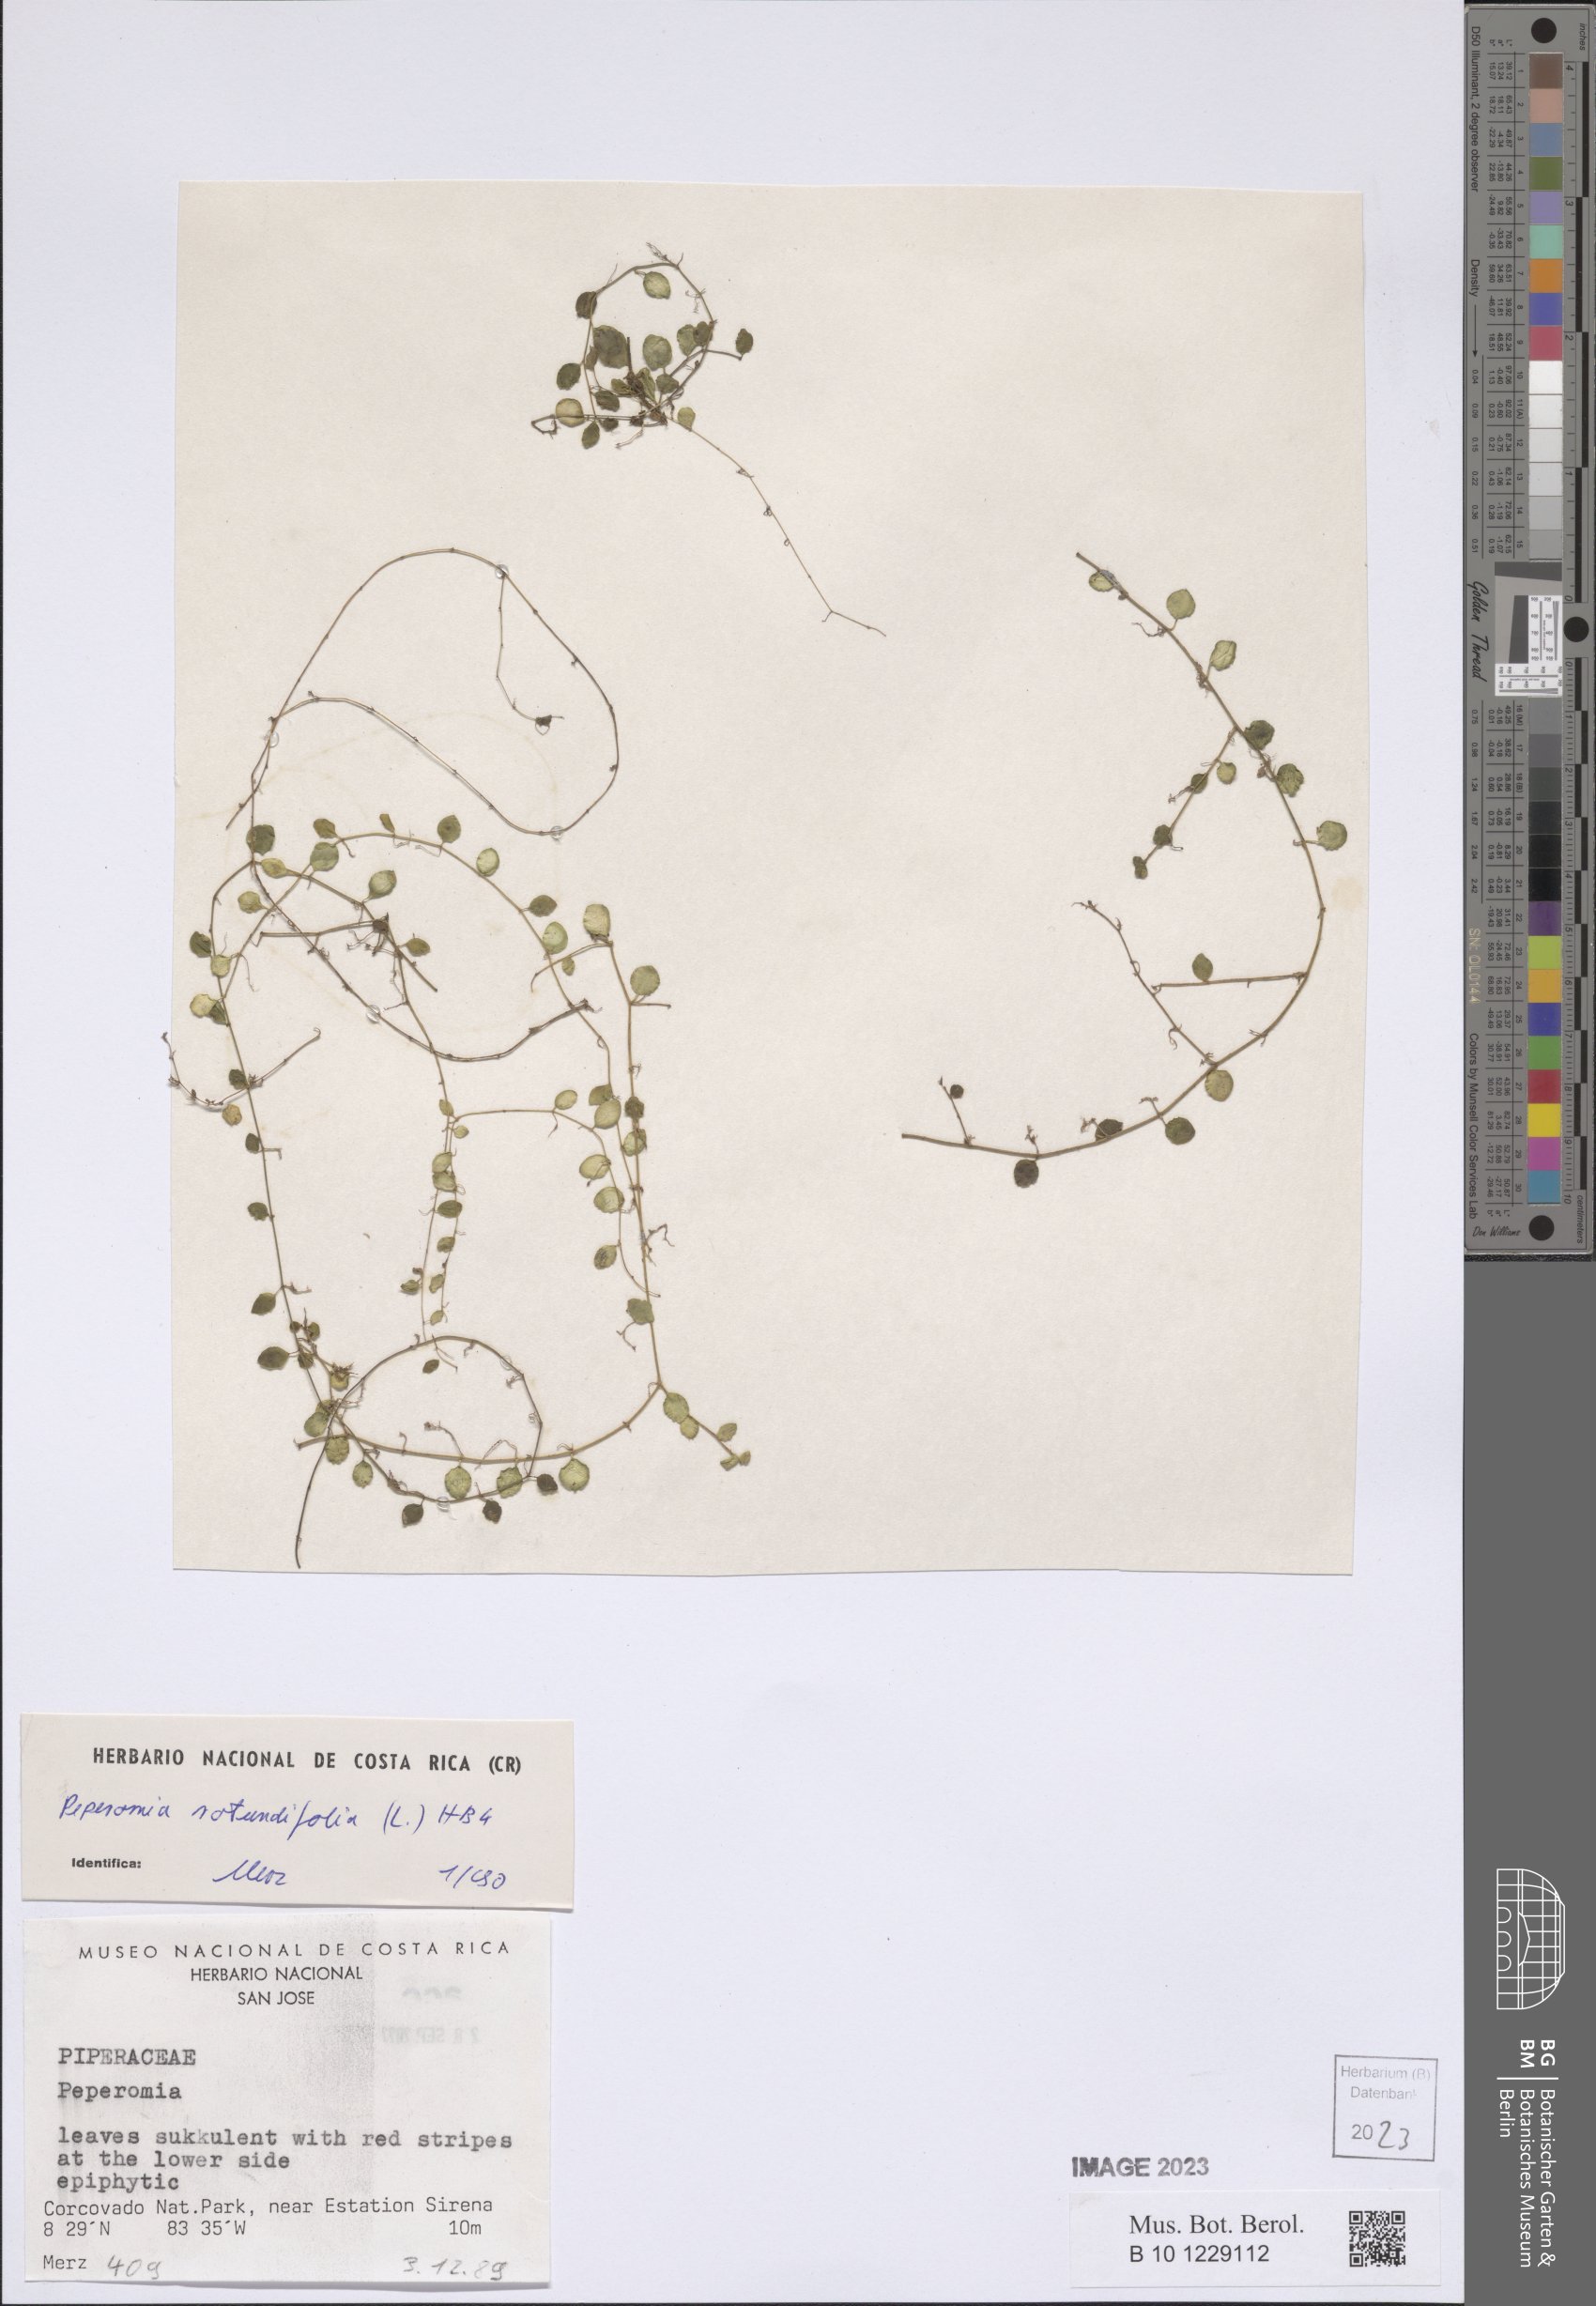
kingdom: Plantae
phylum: Tracheophyta
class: Magnoliopsida
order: Piperales
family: Piperaceae
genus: Peperomia
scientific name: Peperomia rotundifolia
